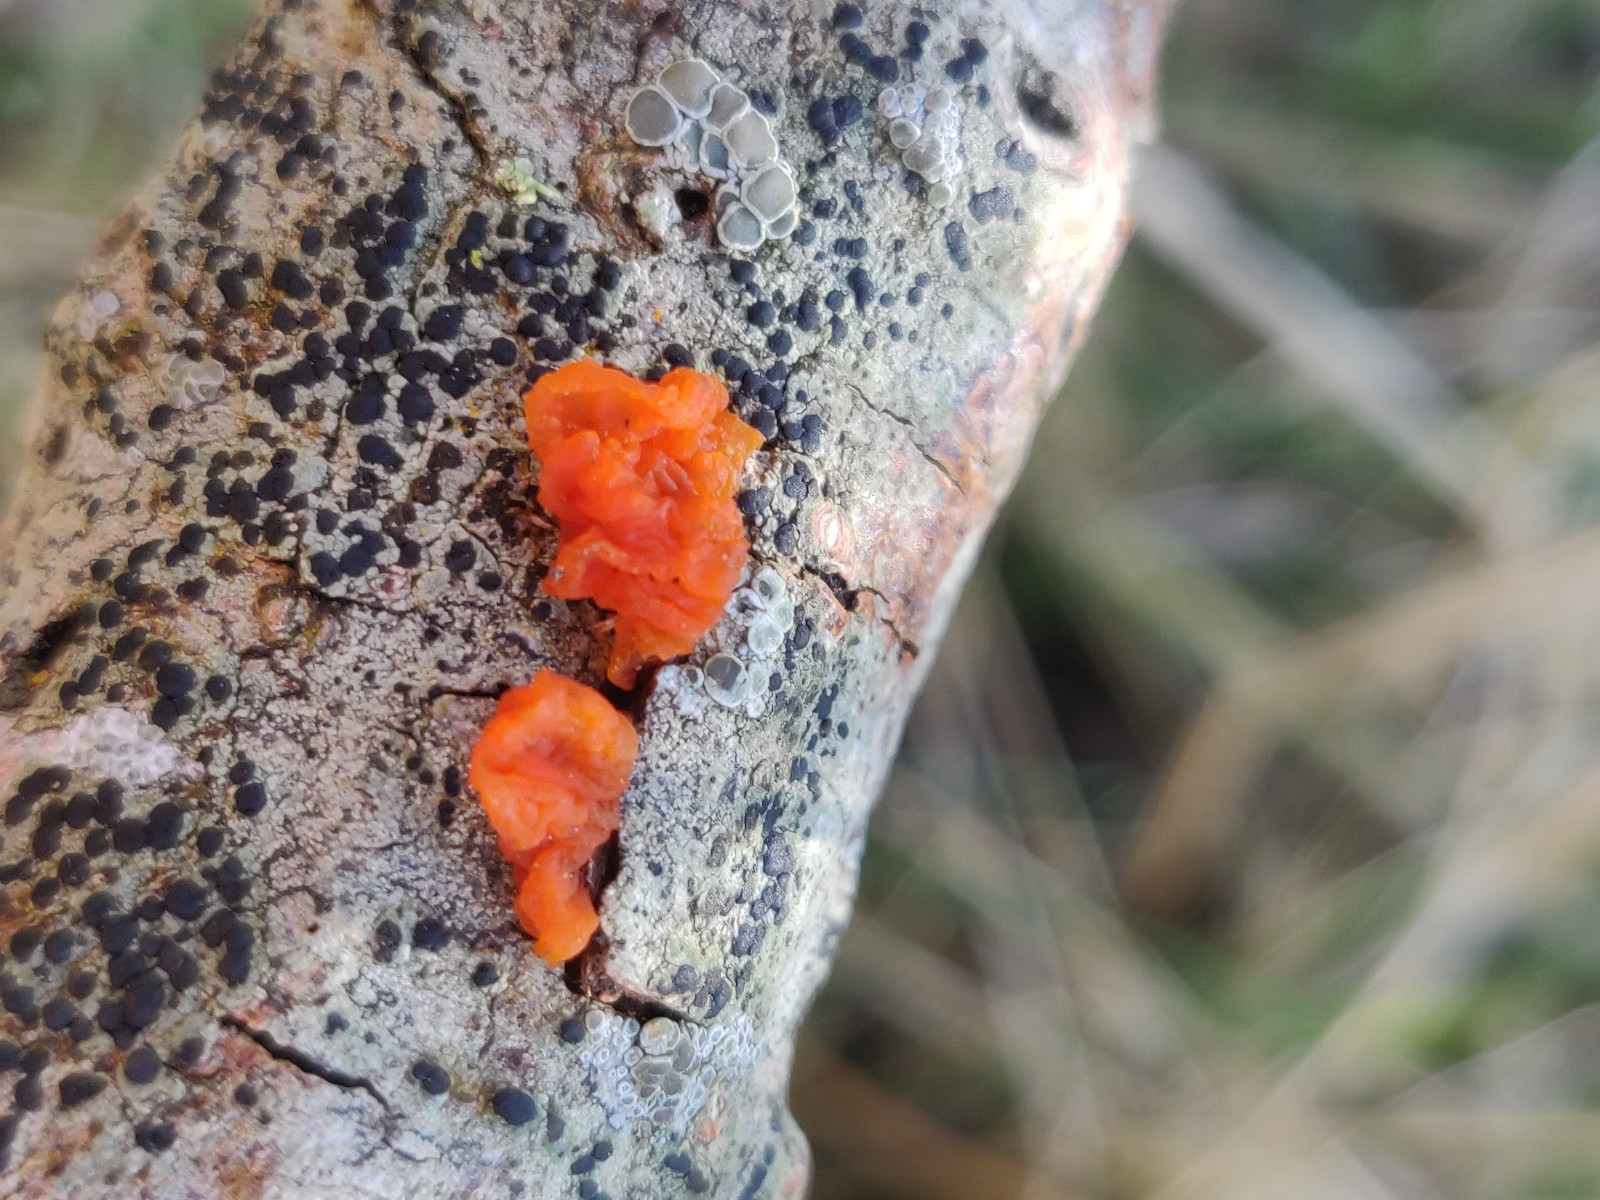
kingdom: Fungi
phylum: Basidiomycota
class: Tremellomycetes
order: Tremellales
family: Tremellaceae
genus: Tremella
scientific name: Tremella mesenterica
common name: gul bævresvamp
